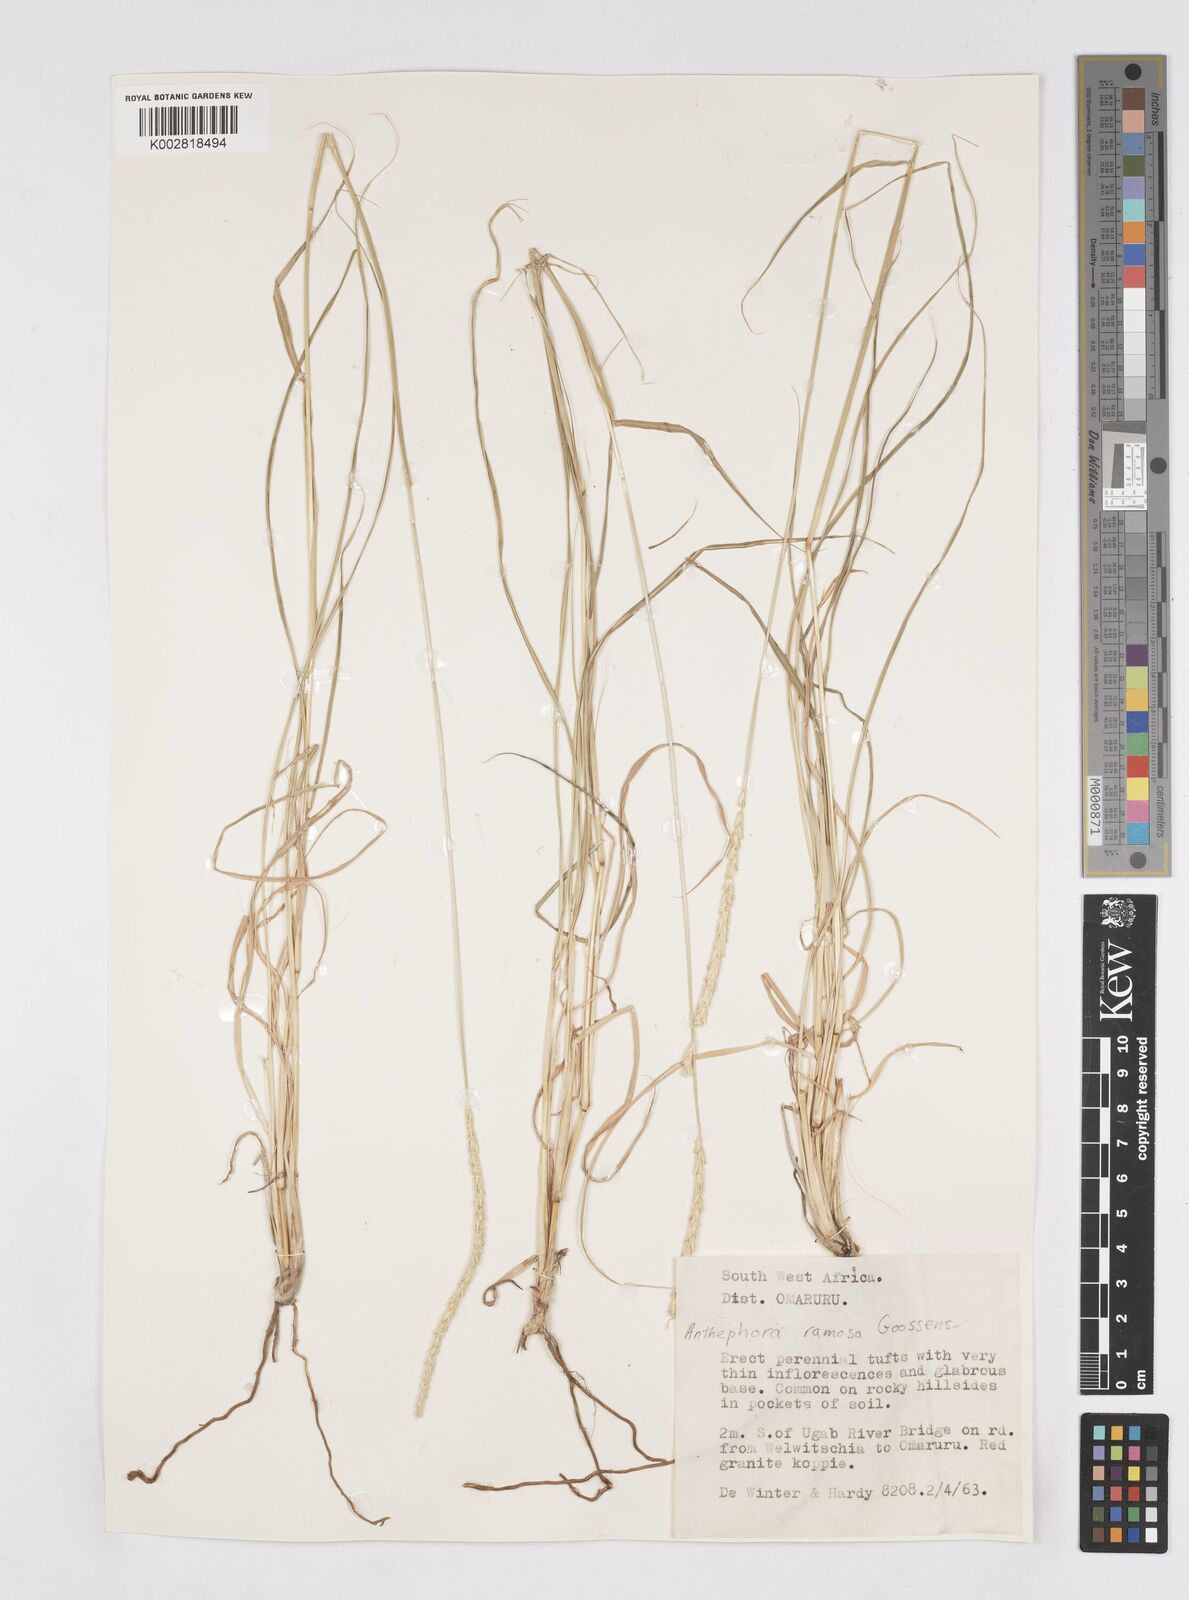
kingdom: Plantae
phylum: Tracheophyta
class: Liliopsida
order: Poales
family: Poaceae
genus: Anthephora
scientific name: Anthephora pubescens
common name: Wool grass
